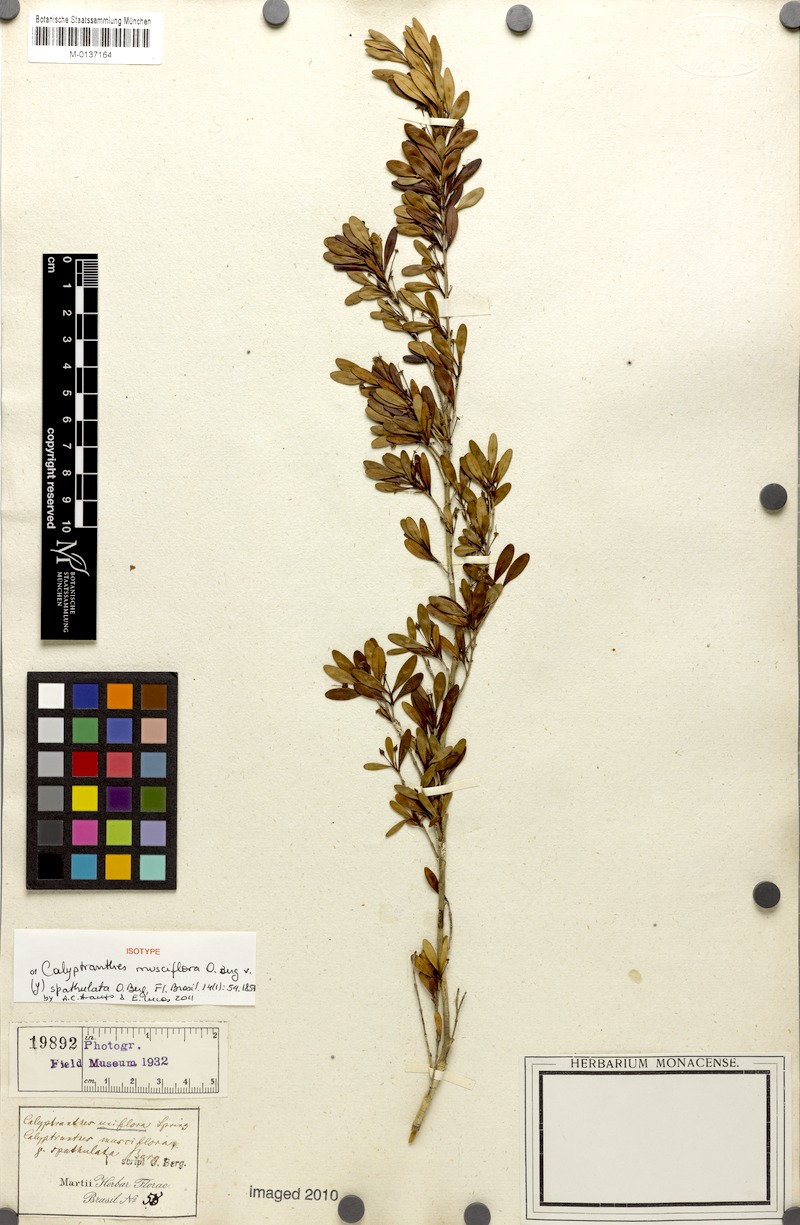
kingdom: Plantae
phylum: Tracheophyta
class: Magnoliopsida
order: Myrtales
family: Myrtaceae
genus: Myrcia
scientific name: Myrcia grammica
